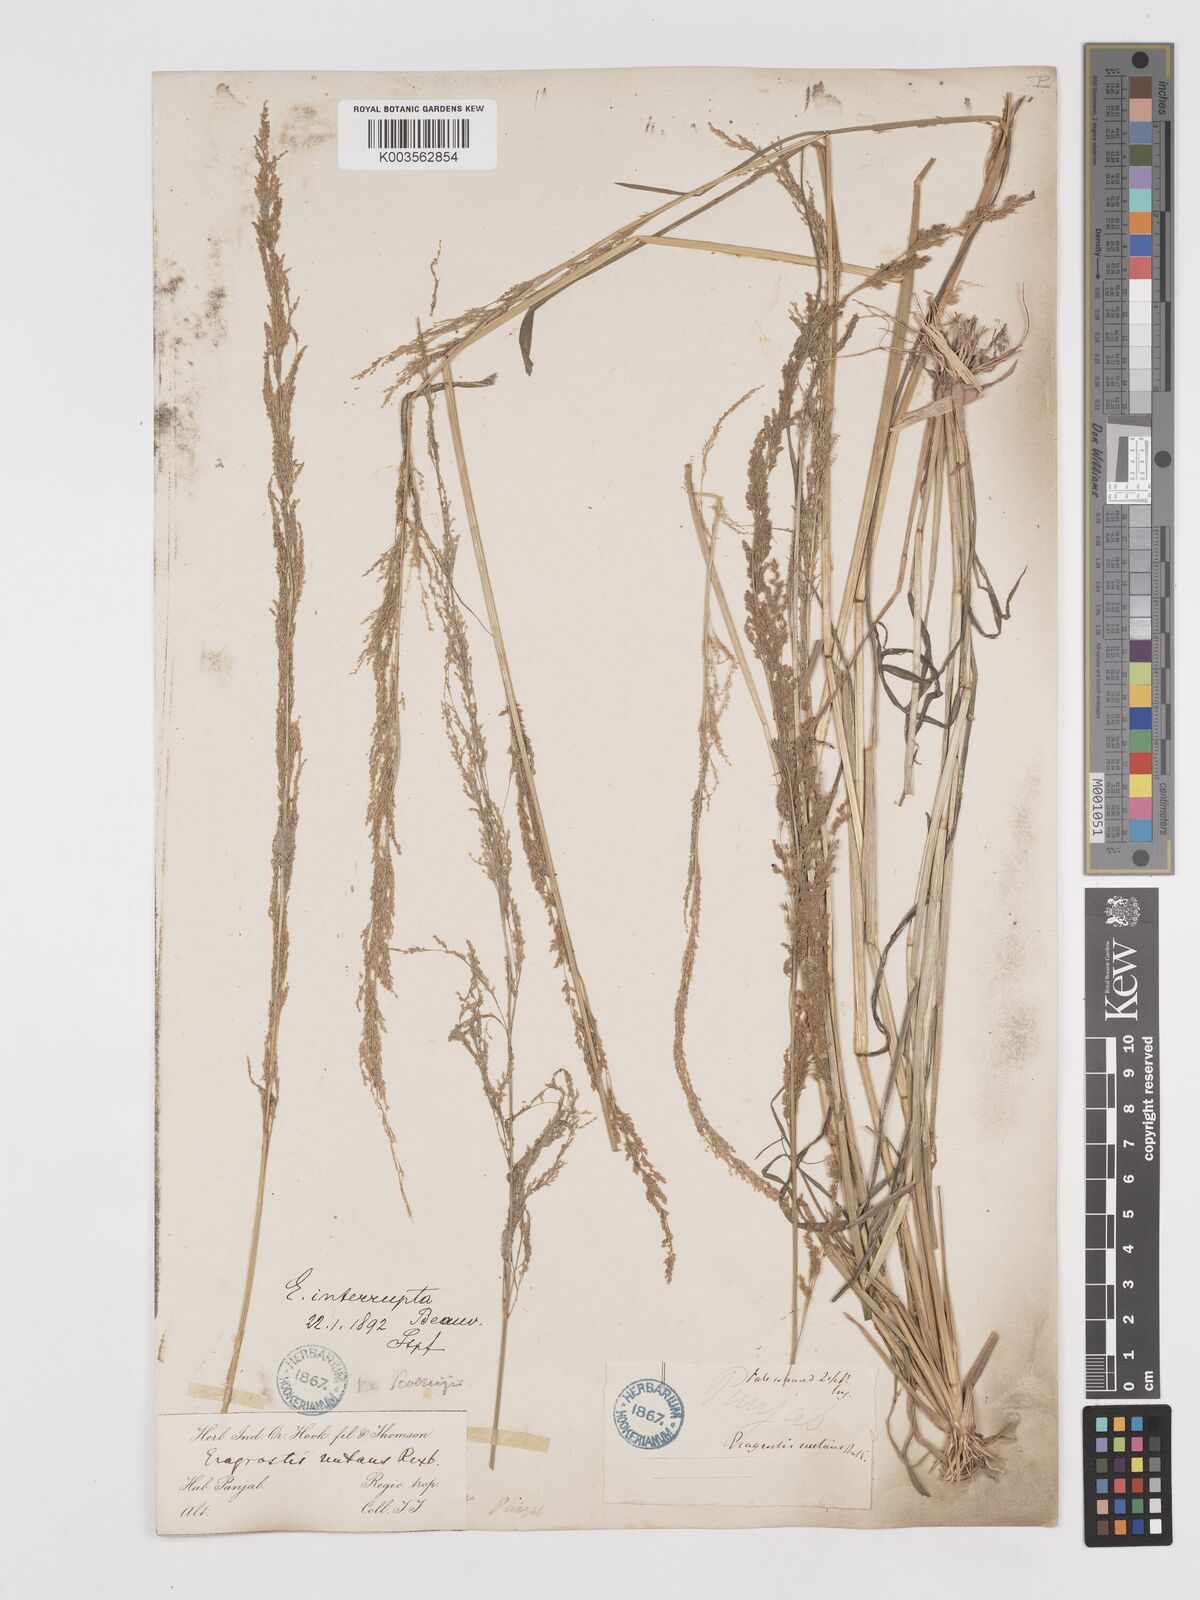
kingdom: Plantae
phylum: Tracheophyta
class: Liliopsida
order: Poales
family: Poaceae
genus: Eragrostis
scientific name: Eragrostis japonica
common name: Pond lovegrass
